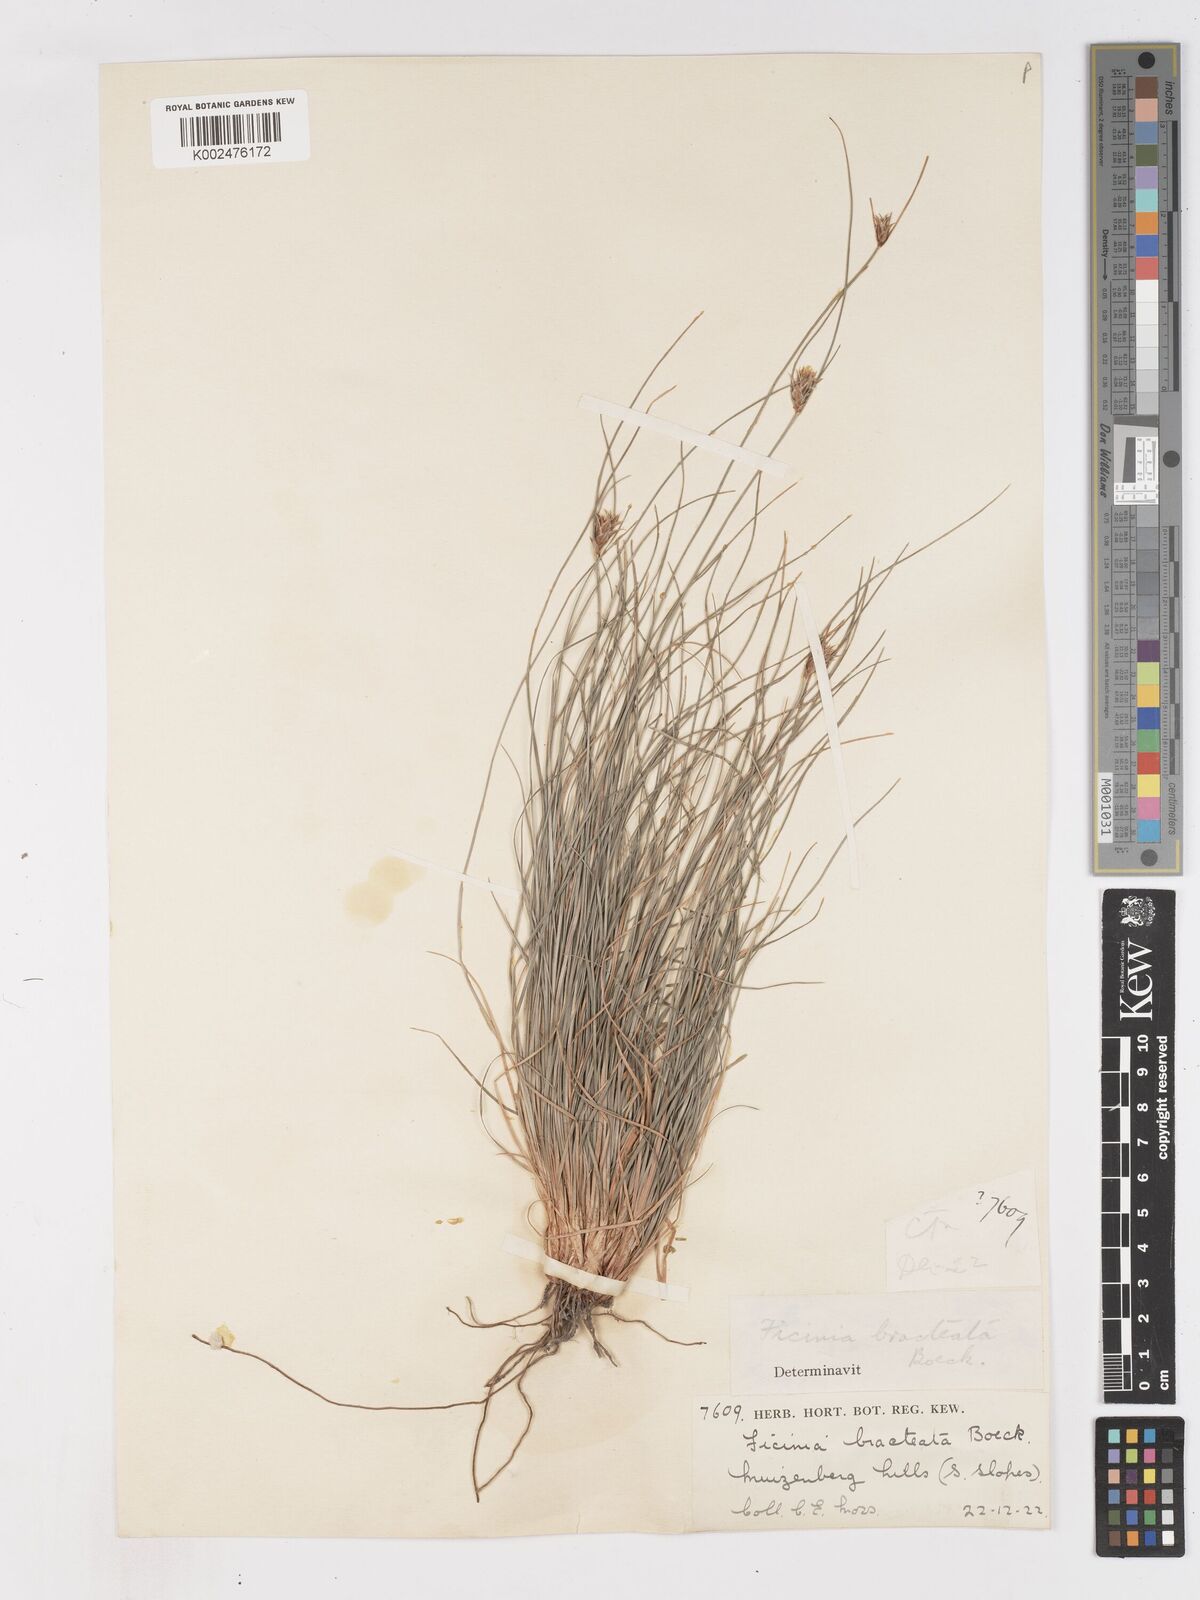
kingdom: Plantae
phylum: Tracheophyta
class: Liliopsida
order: Poales
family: Cyperaceae
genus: Ficinia
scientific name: Ficinia nigrescens
